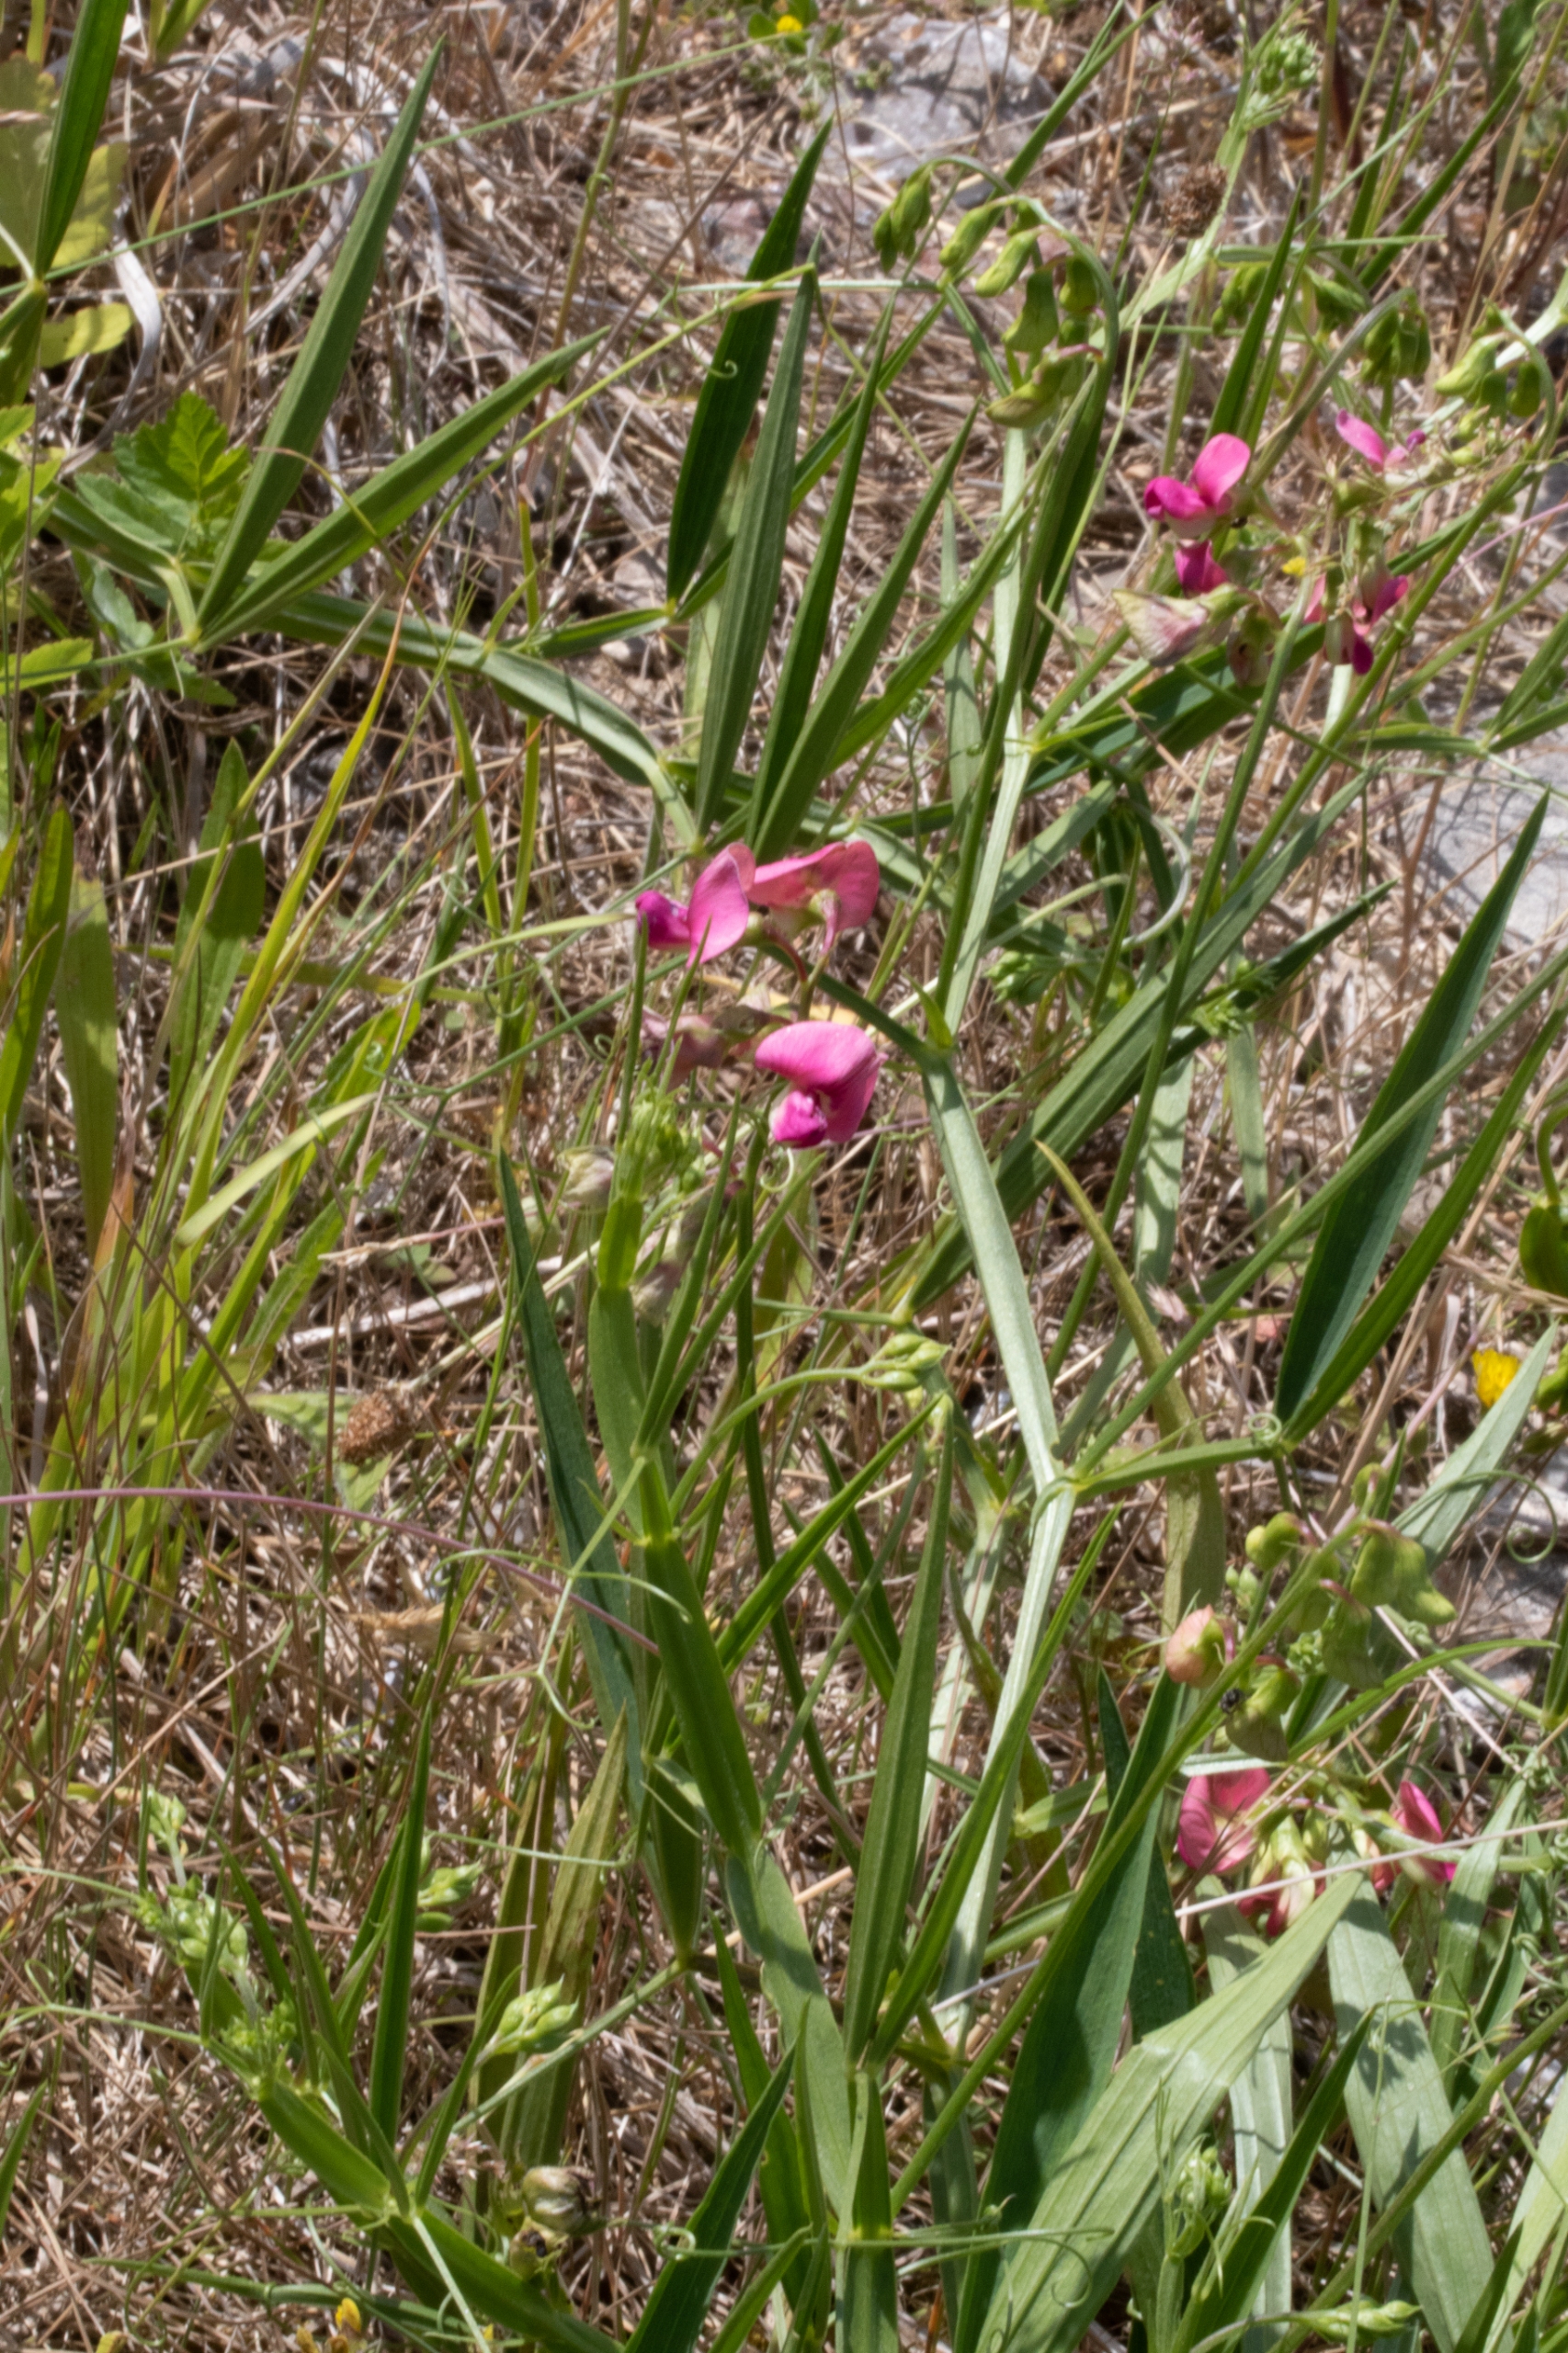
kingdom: Plantae
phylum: Tracheophyta
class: Magnoliopsida
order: Fabales
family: Fabaceae
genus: Lathyrus
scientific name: Lathyrus sylvestris
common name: Skov-fladbælg
